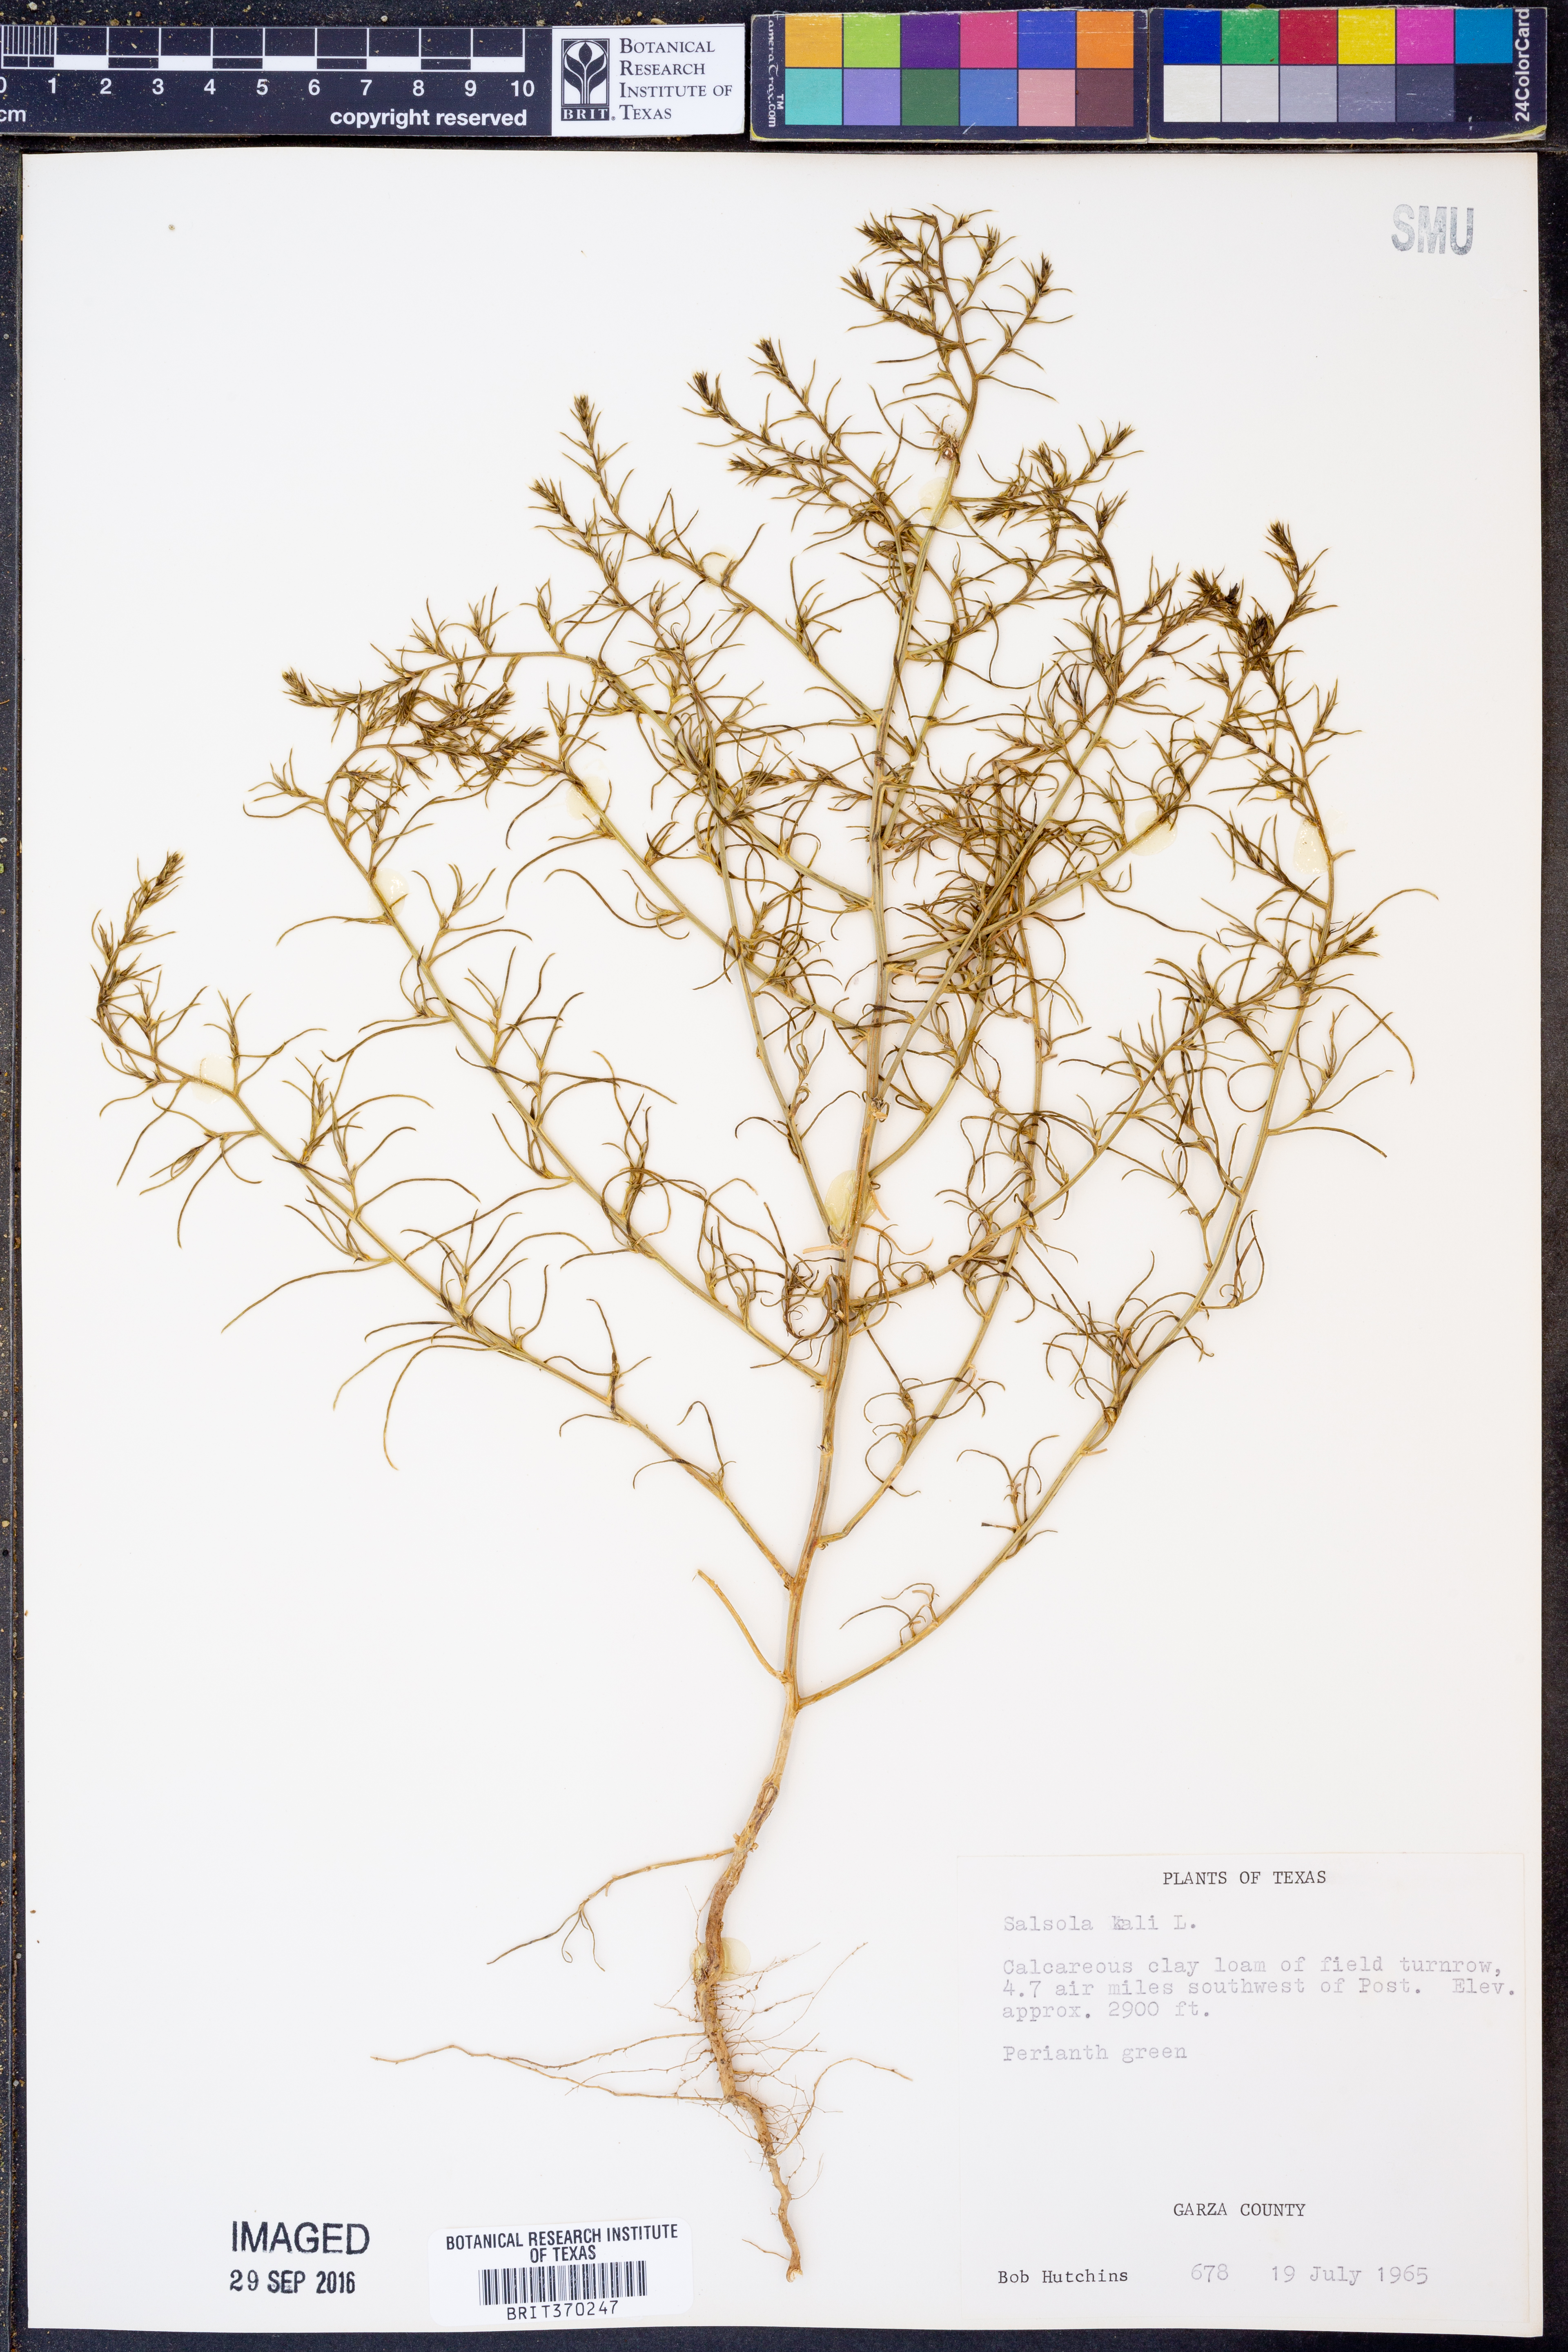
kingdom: Plantae
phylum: Tracheophyta
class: Magnoliopsida
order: Caryophyllales
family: Amaranthaceae
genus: Salsola
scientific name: Salsola kali
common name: Saltwort
